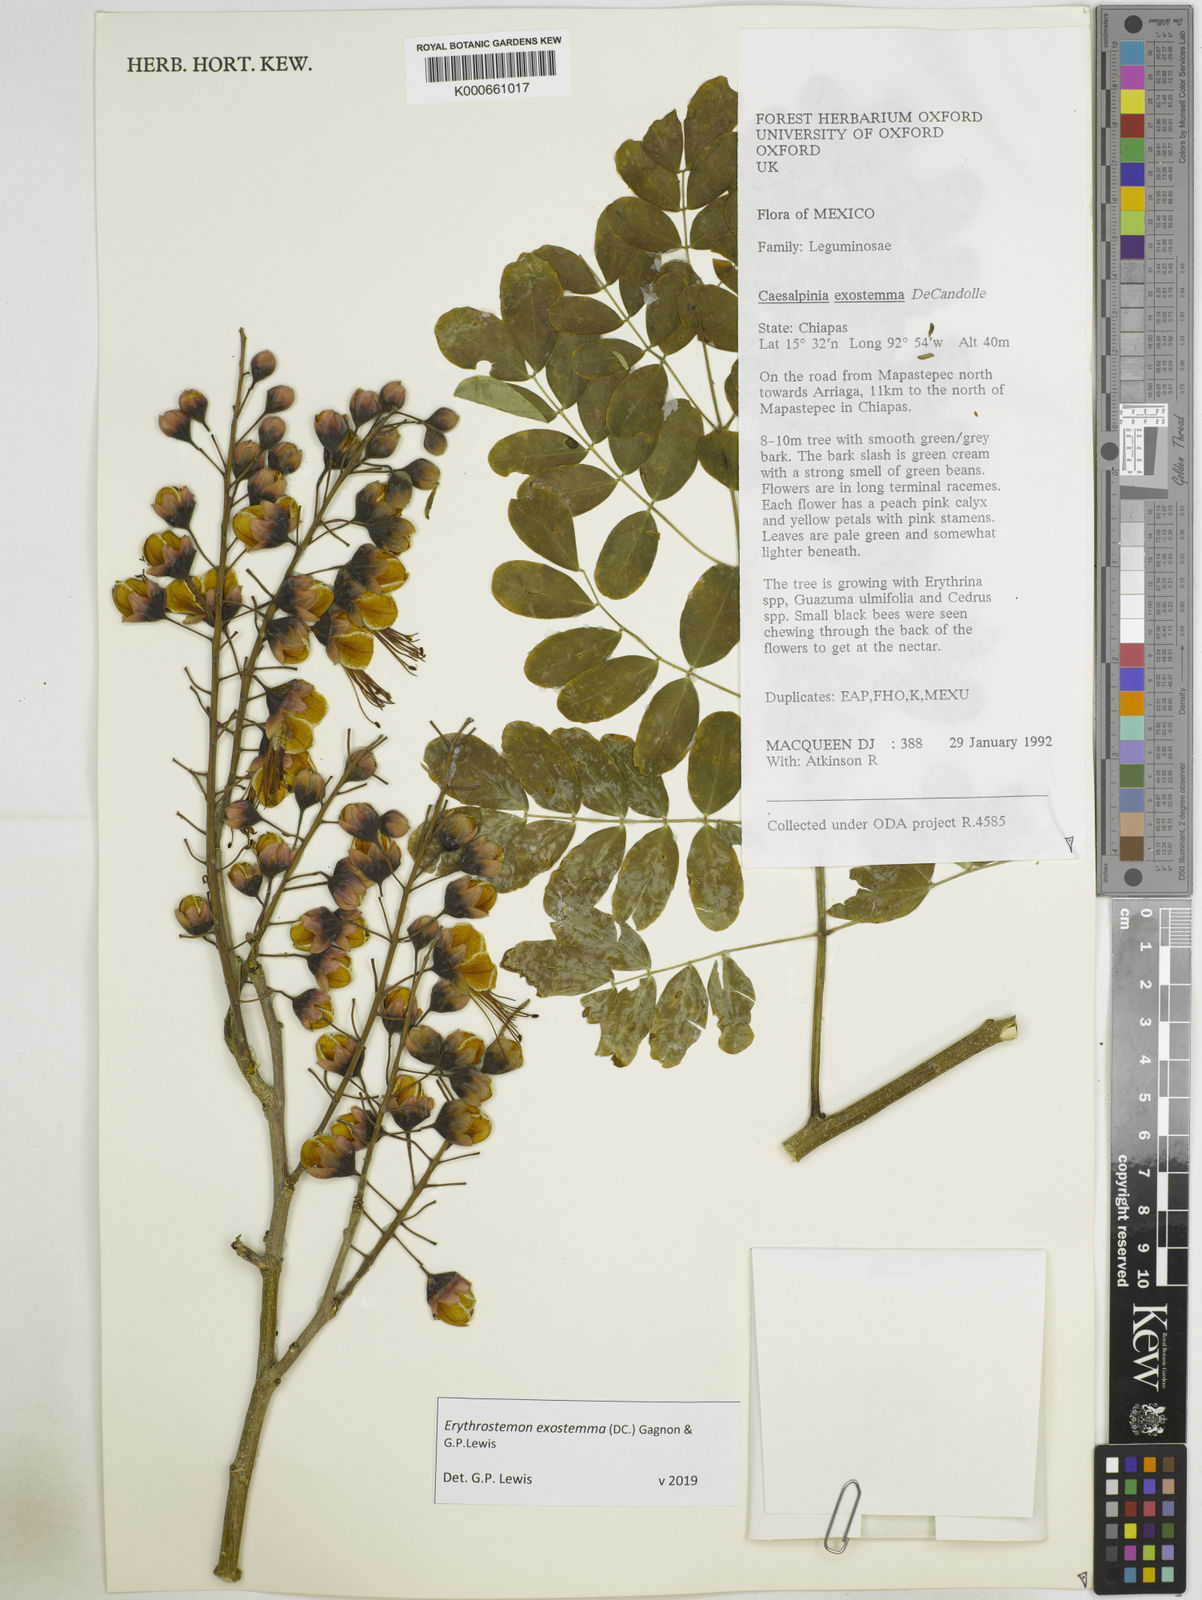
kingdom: Plantae
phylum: Tracheophyta
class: Magnoliopsida
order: Fabales
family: Fabaceae
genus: Erythrostemon
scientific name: Erythrostemon exostemma
